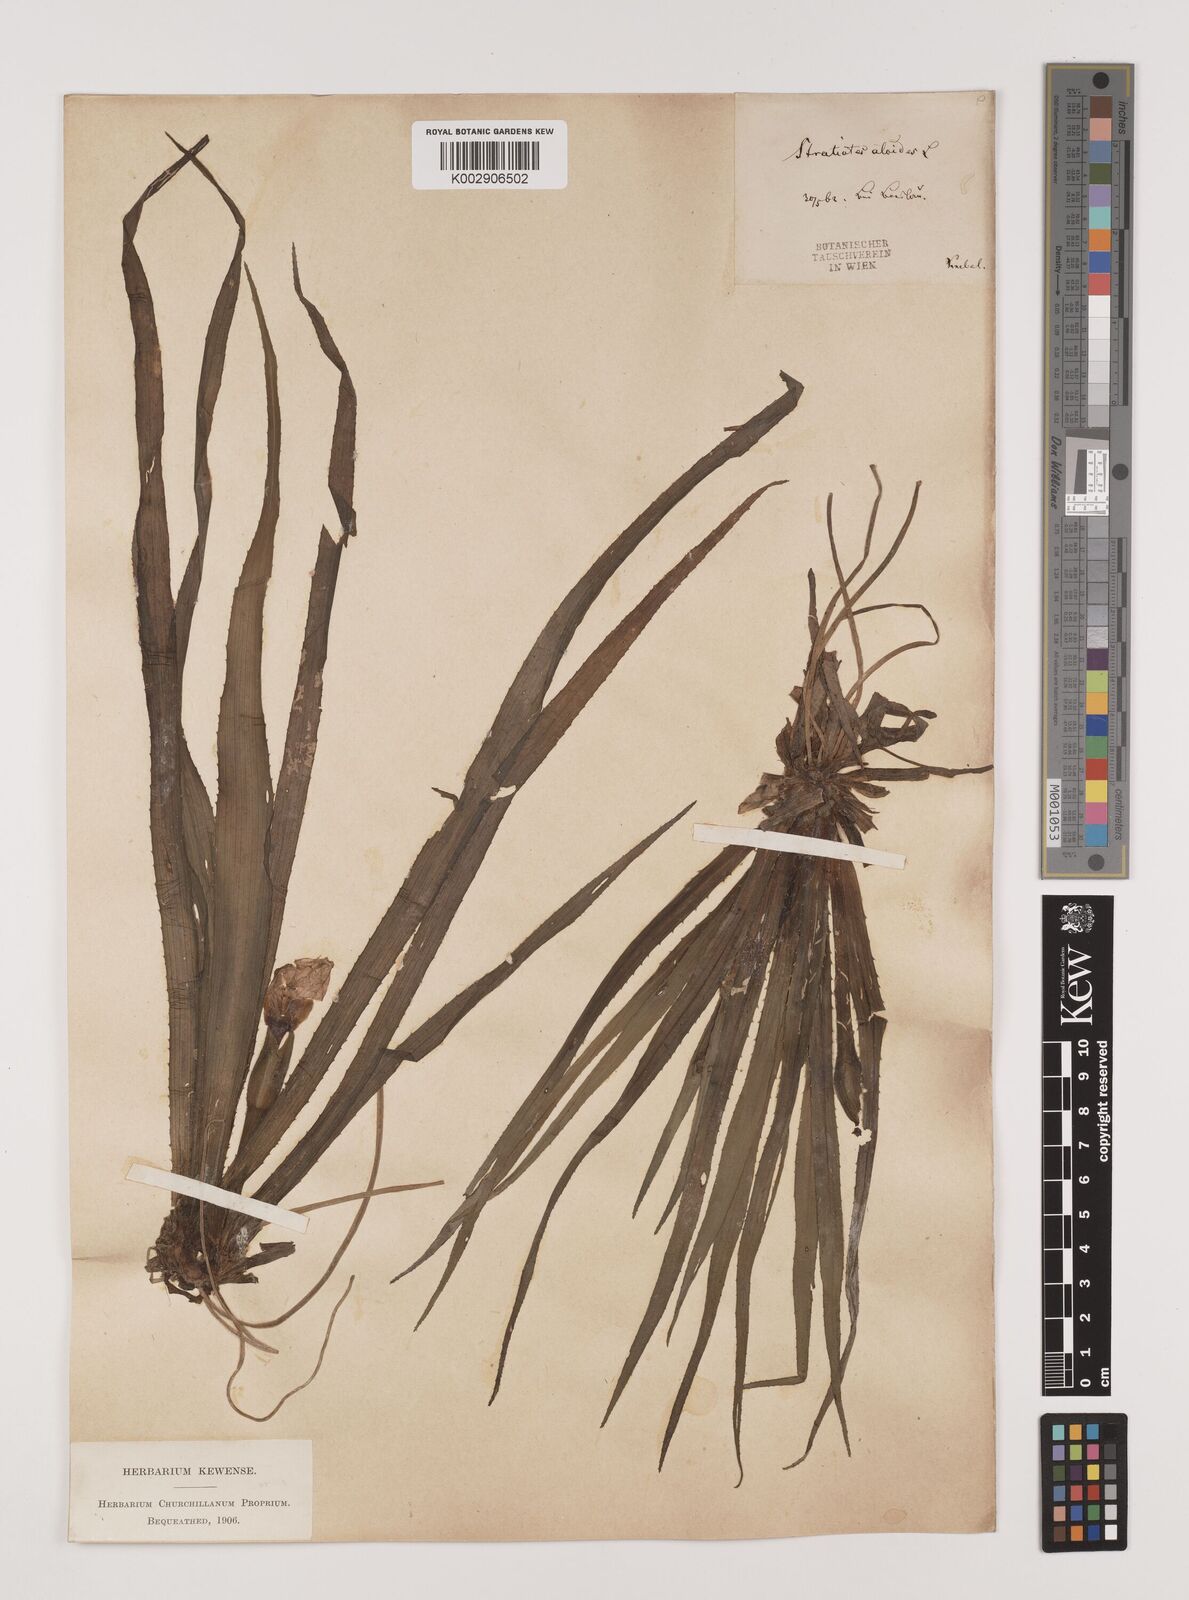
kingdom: Plantae
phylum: Tracheophyta
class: Liliopsida
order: Alismatales
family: Hydrocharitaceae
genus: Stratiotes
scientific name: Stratiotes aloides
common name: Water-soldier
